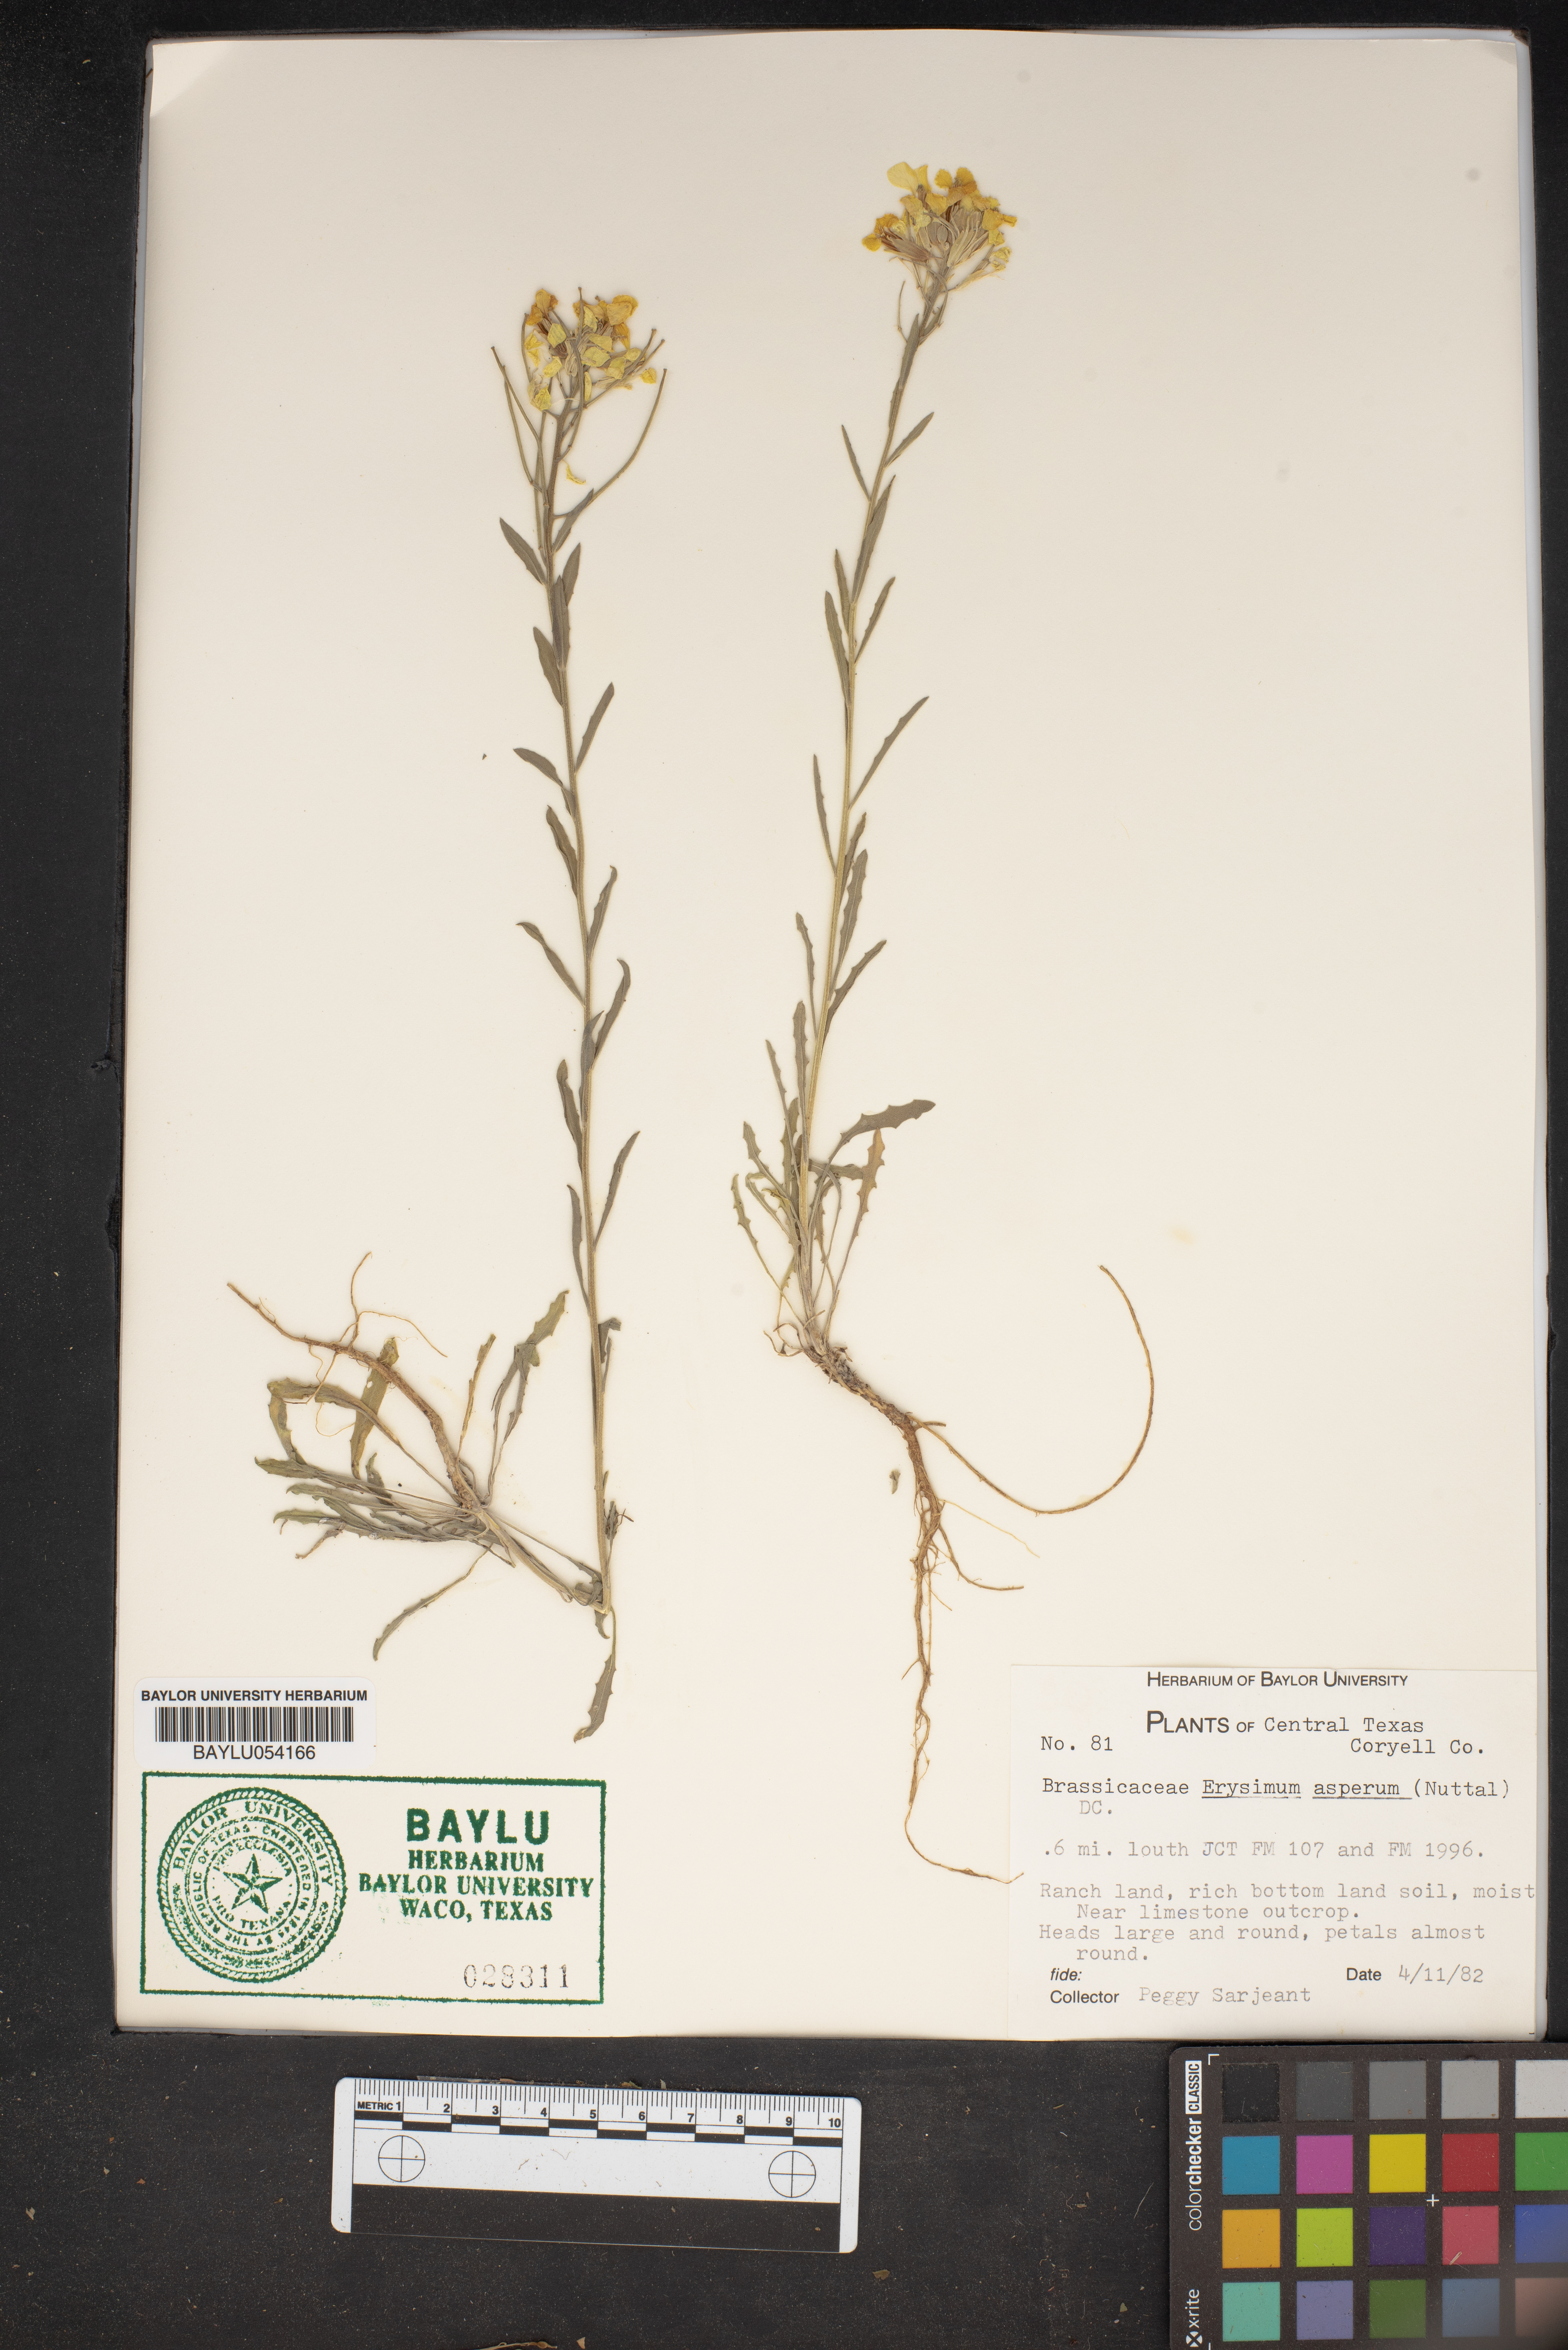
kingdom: Plantae
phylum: Tracheophyta
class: Magnoliopsida
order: Brassicales
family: Brassicaceae
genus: Erysimum
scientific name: Erysimum asperum
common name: Western wallflower
